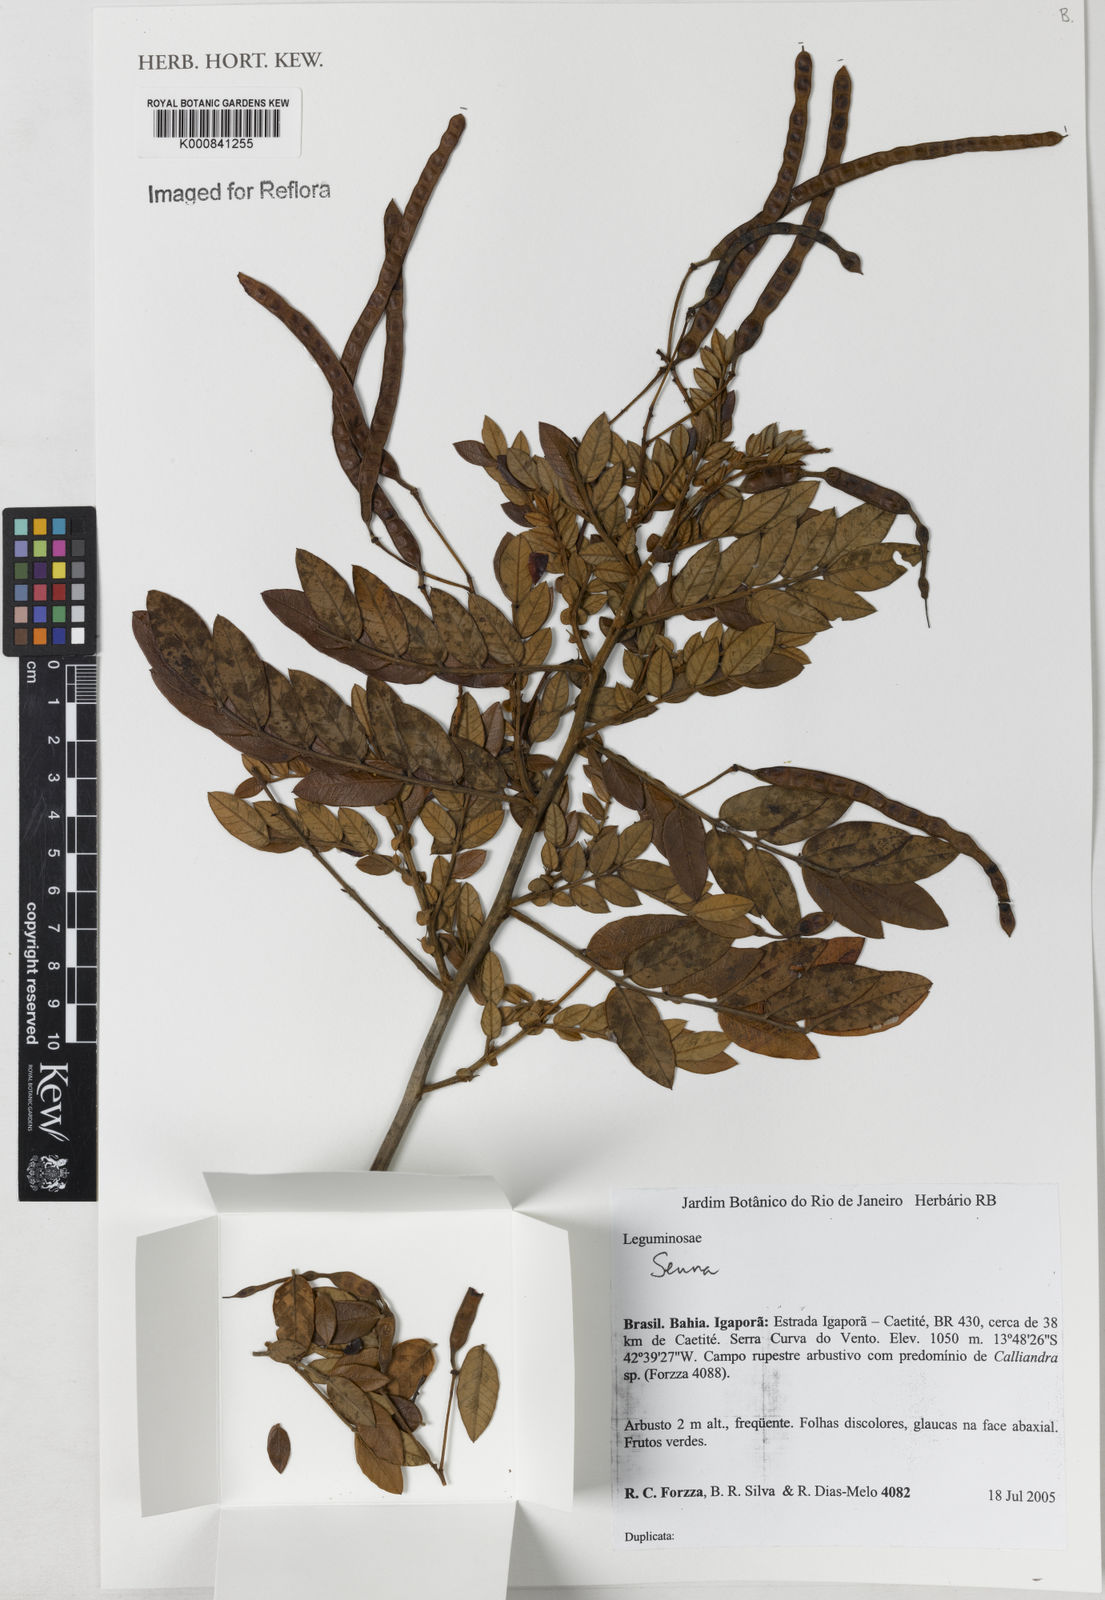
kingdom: Plantae
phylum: Tracheophyta
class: Magnoliopsida
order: Fabales
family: Fabaceae
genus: Senna
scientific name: Senna
